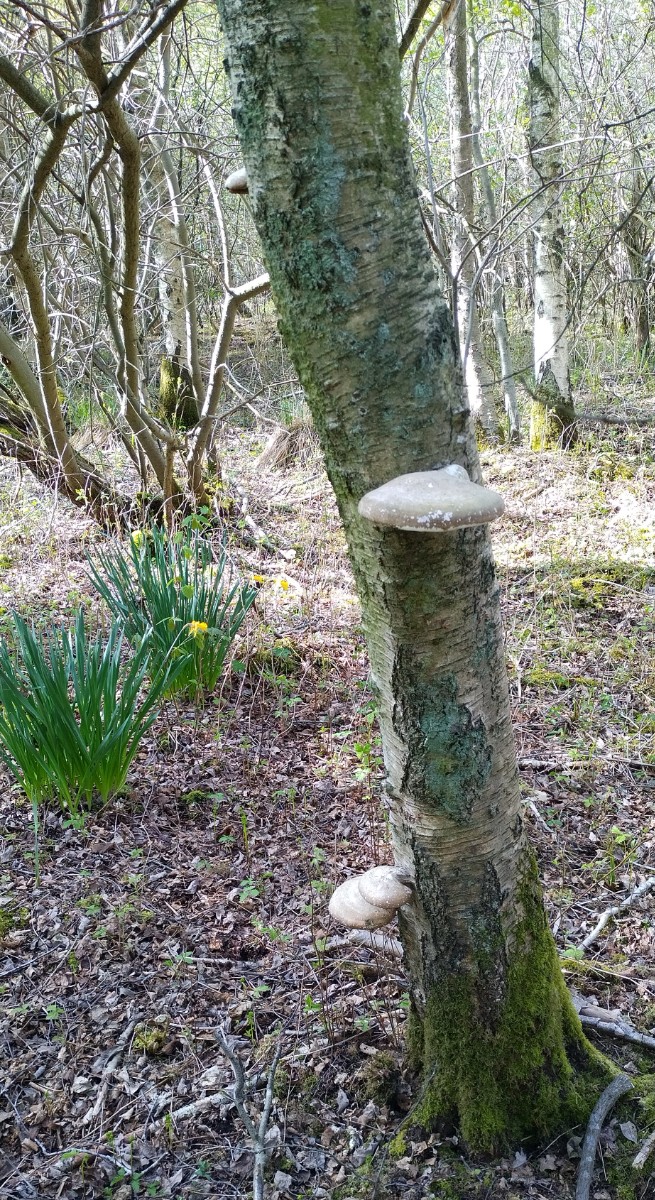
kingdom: Fungi
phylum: Basidiomycota
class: Agaricomycetes
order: Polyporales
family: Fomitopsidaceae
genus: Fomitopsis
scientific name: Fomitopsis betulina
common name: birkeporesvamp
